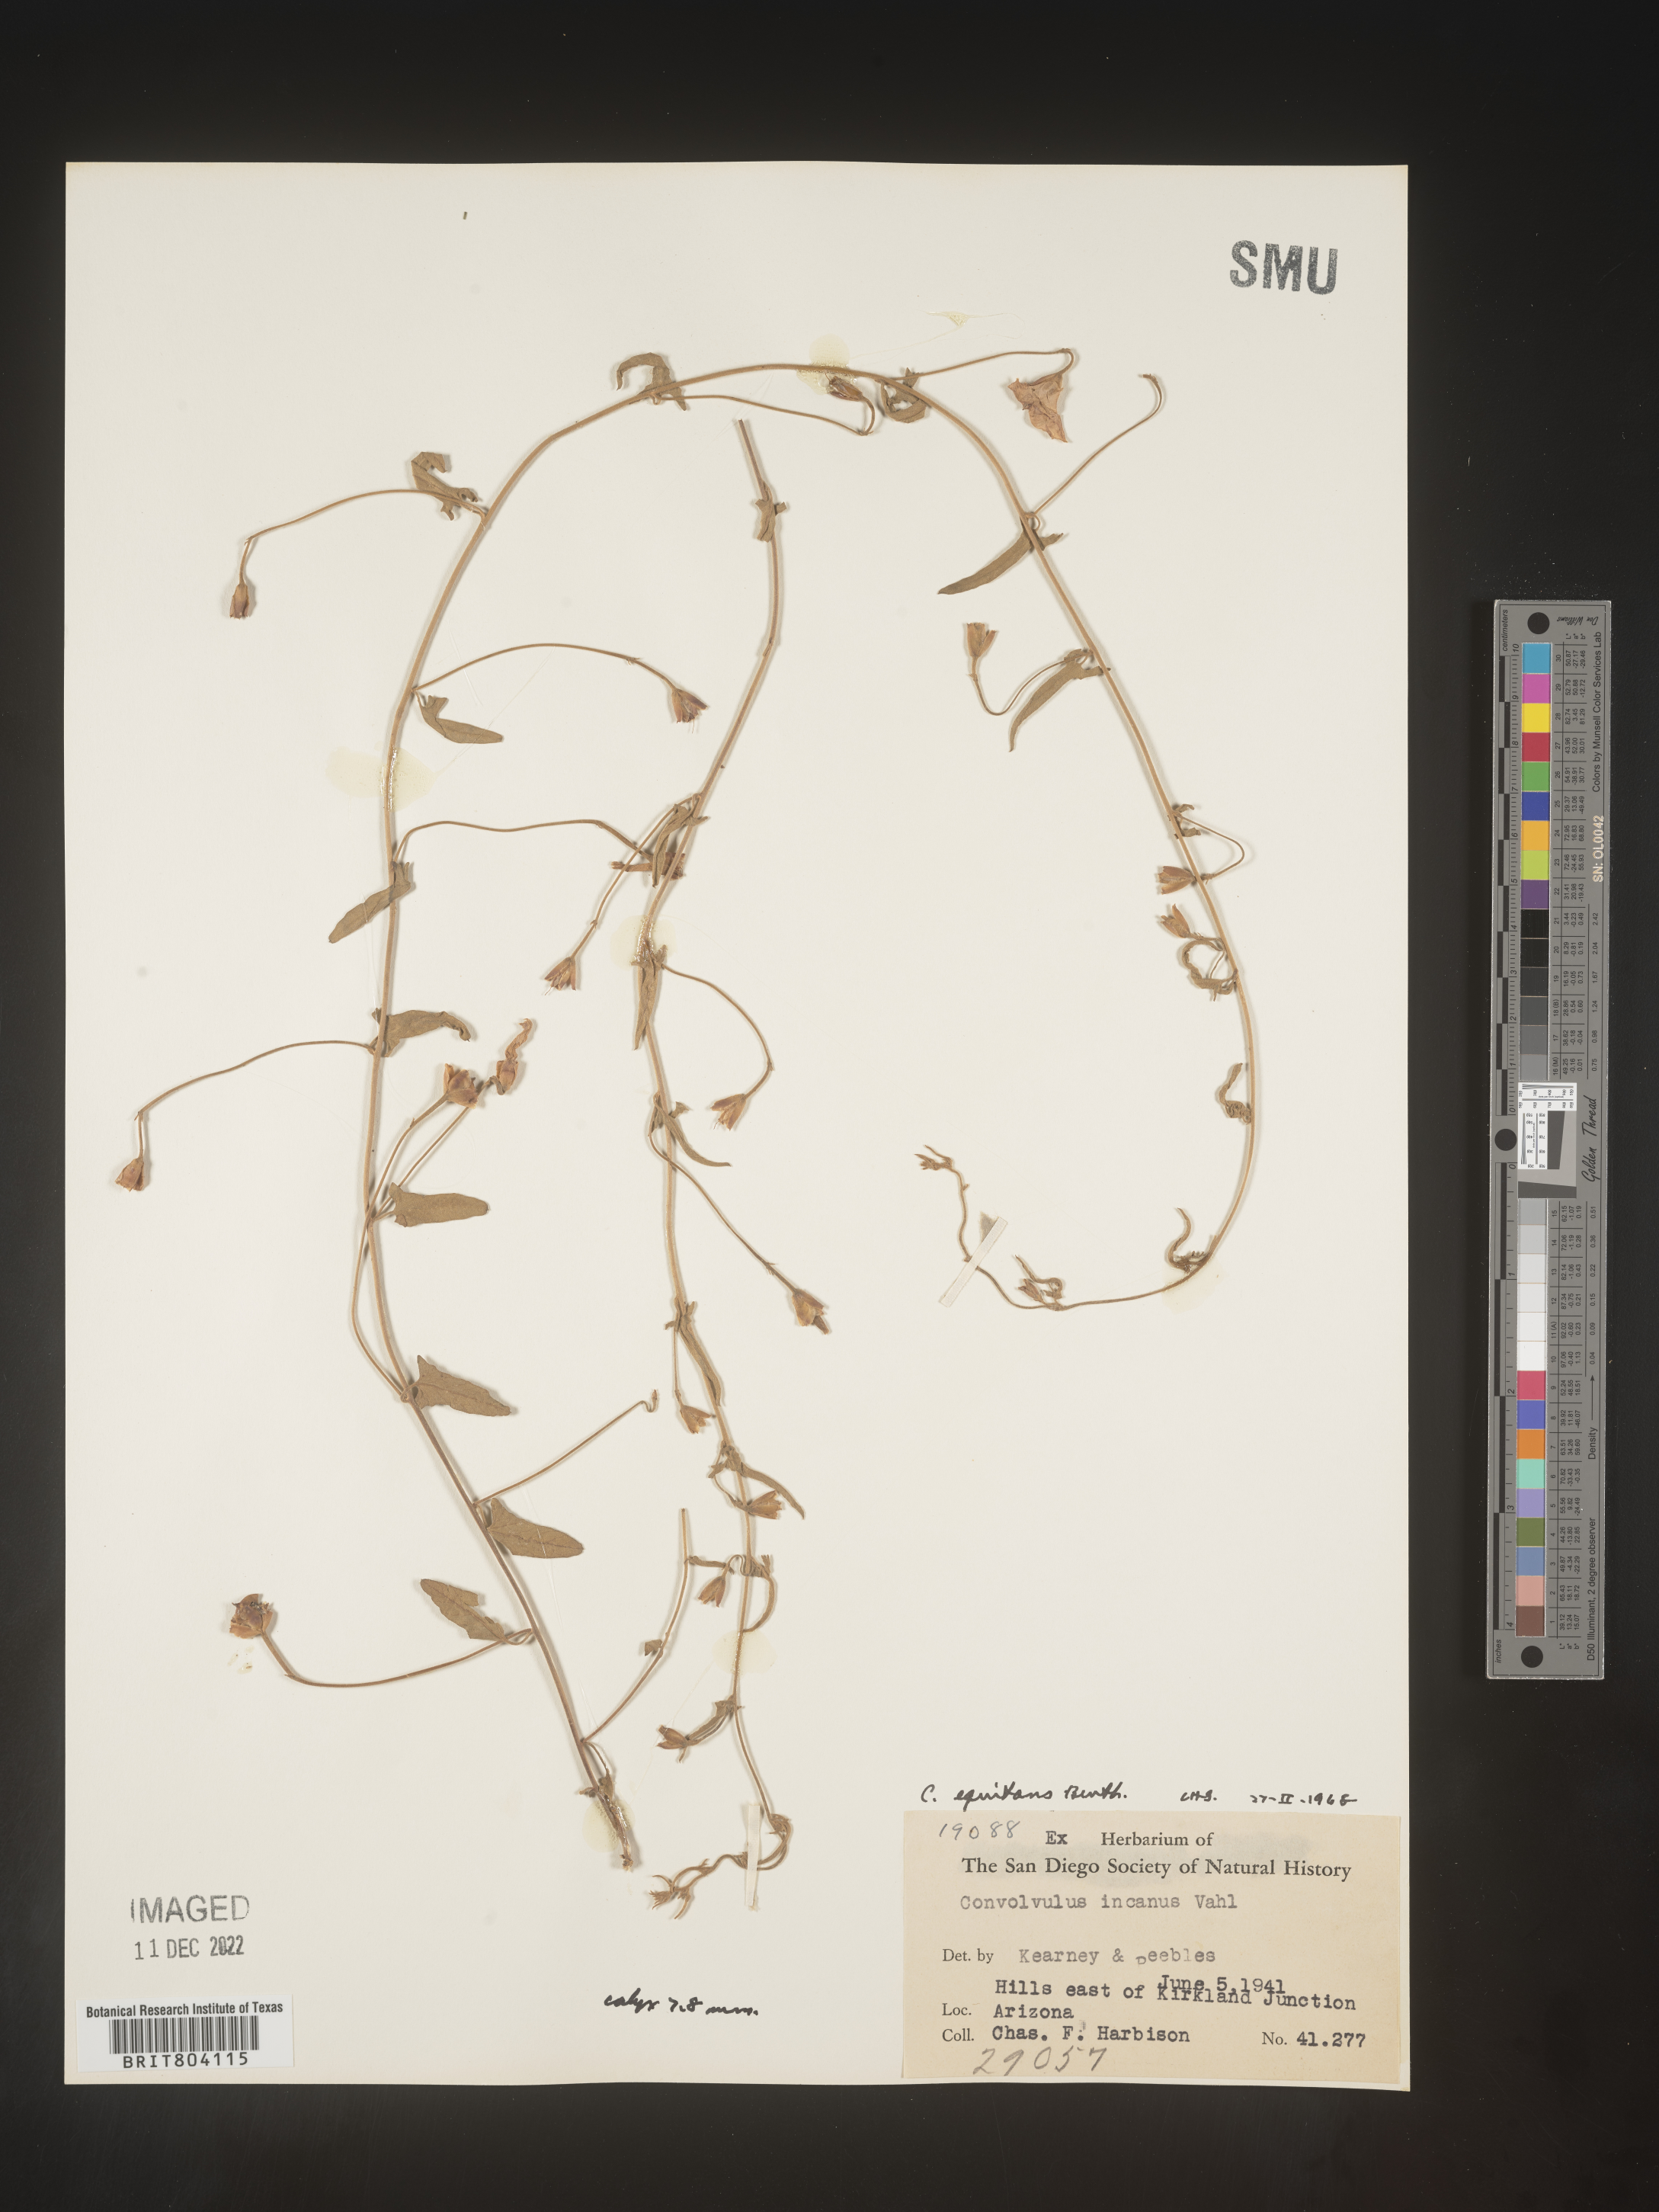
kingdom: Plantae
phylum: Tracheophyta
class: Magnoliopsida
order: Solanales
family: Convolvulaceae
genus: Convolvulus
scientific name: Convolvulus equitans
